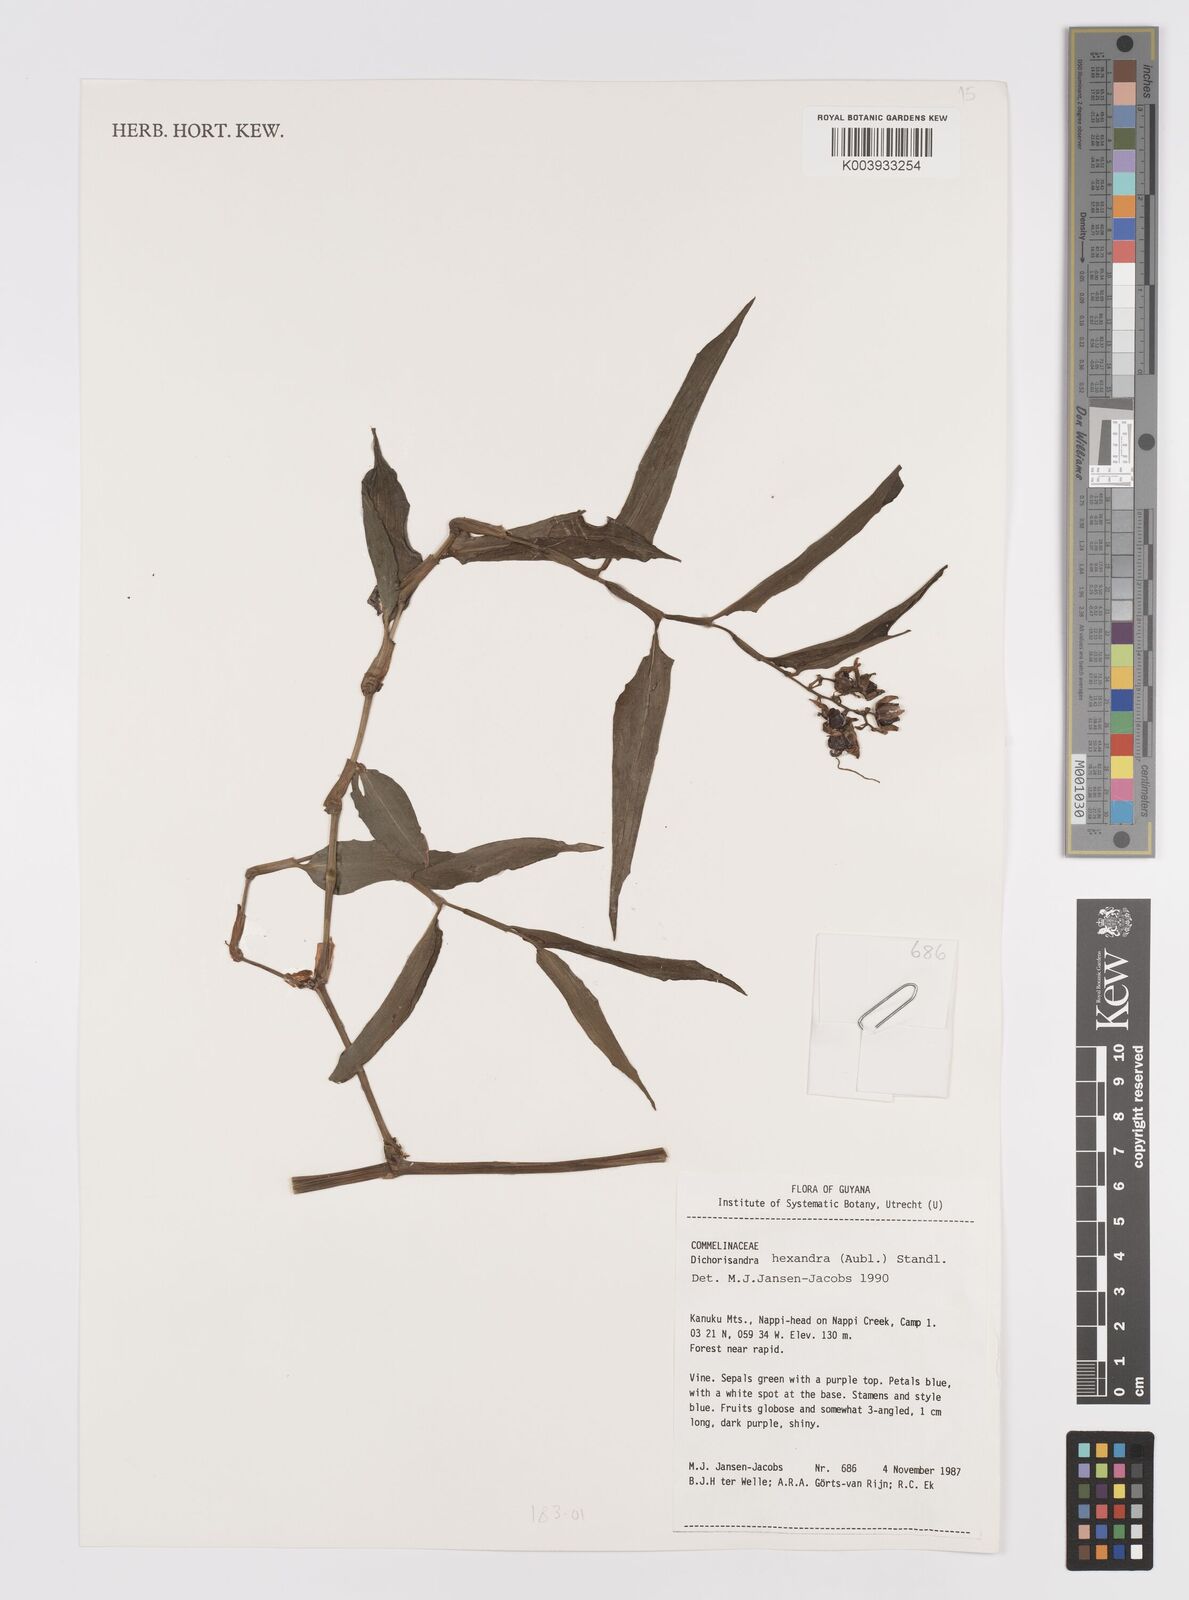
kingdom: Plantae
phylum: Tracheophyta
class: Liliopsida
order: Commelinales
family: Commelinaceae
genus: Dichorisandra
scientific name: Dichorisandra hexandra
